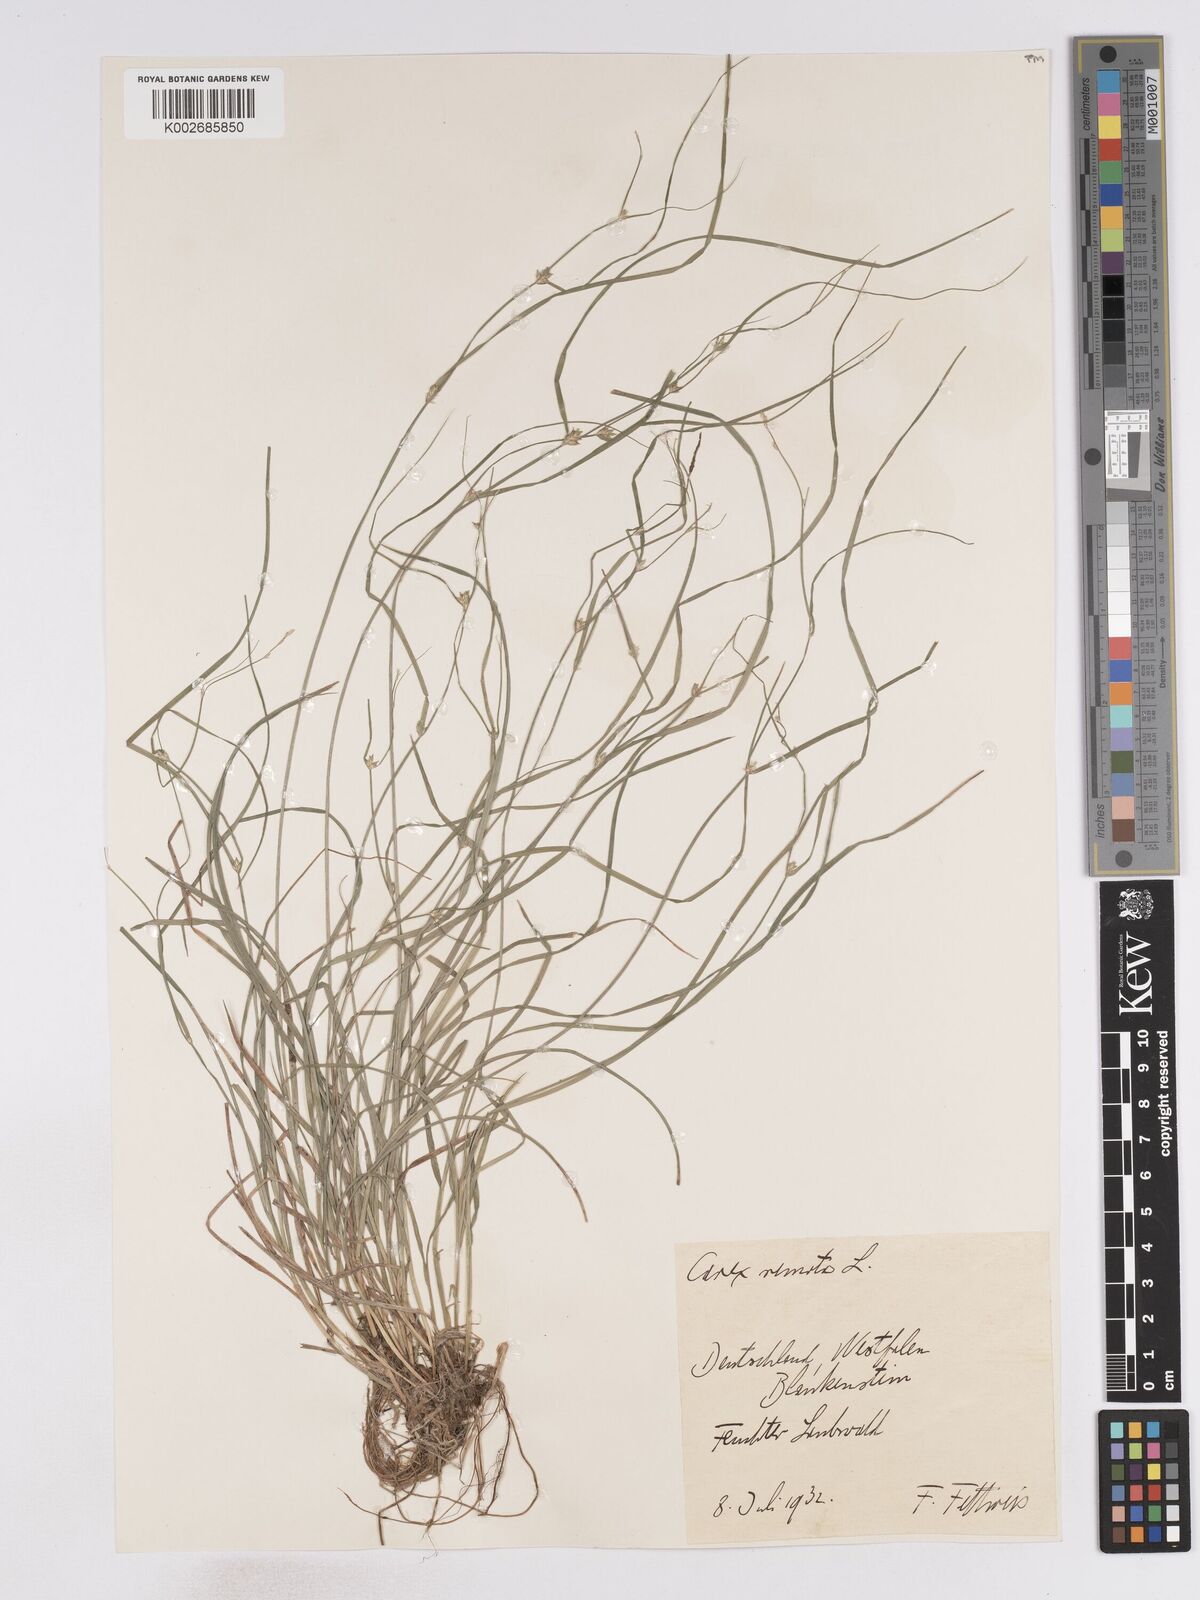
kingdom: Plantae
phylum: Tracheophyta
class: Liliopsida
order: Poales
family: Cyperaceae
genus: Carex
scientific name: Carex remota
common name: Remote sedge
